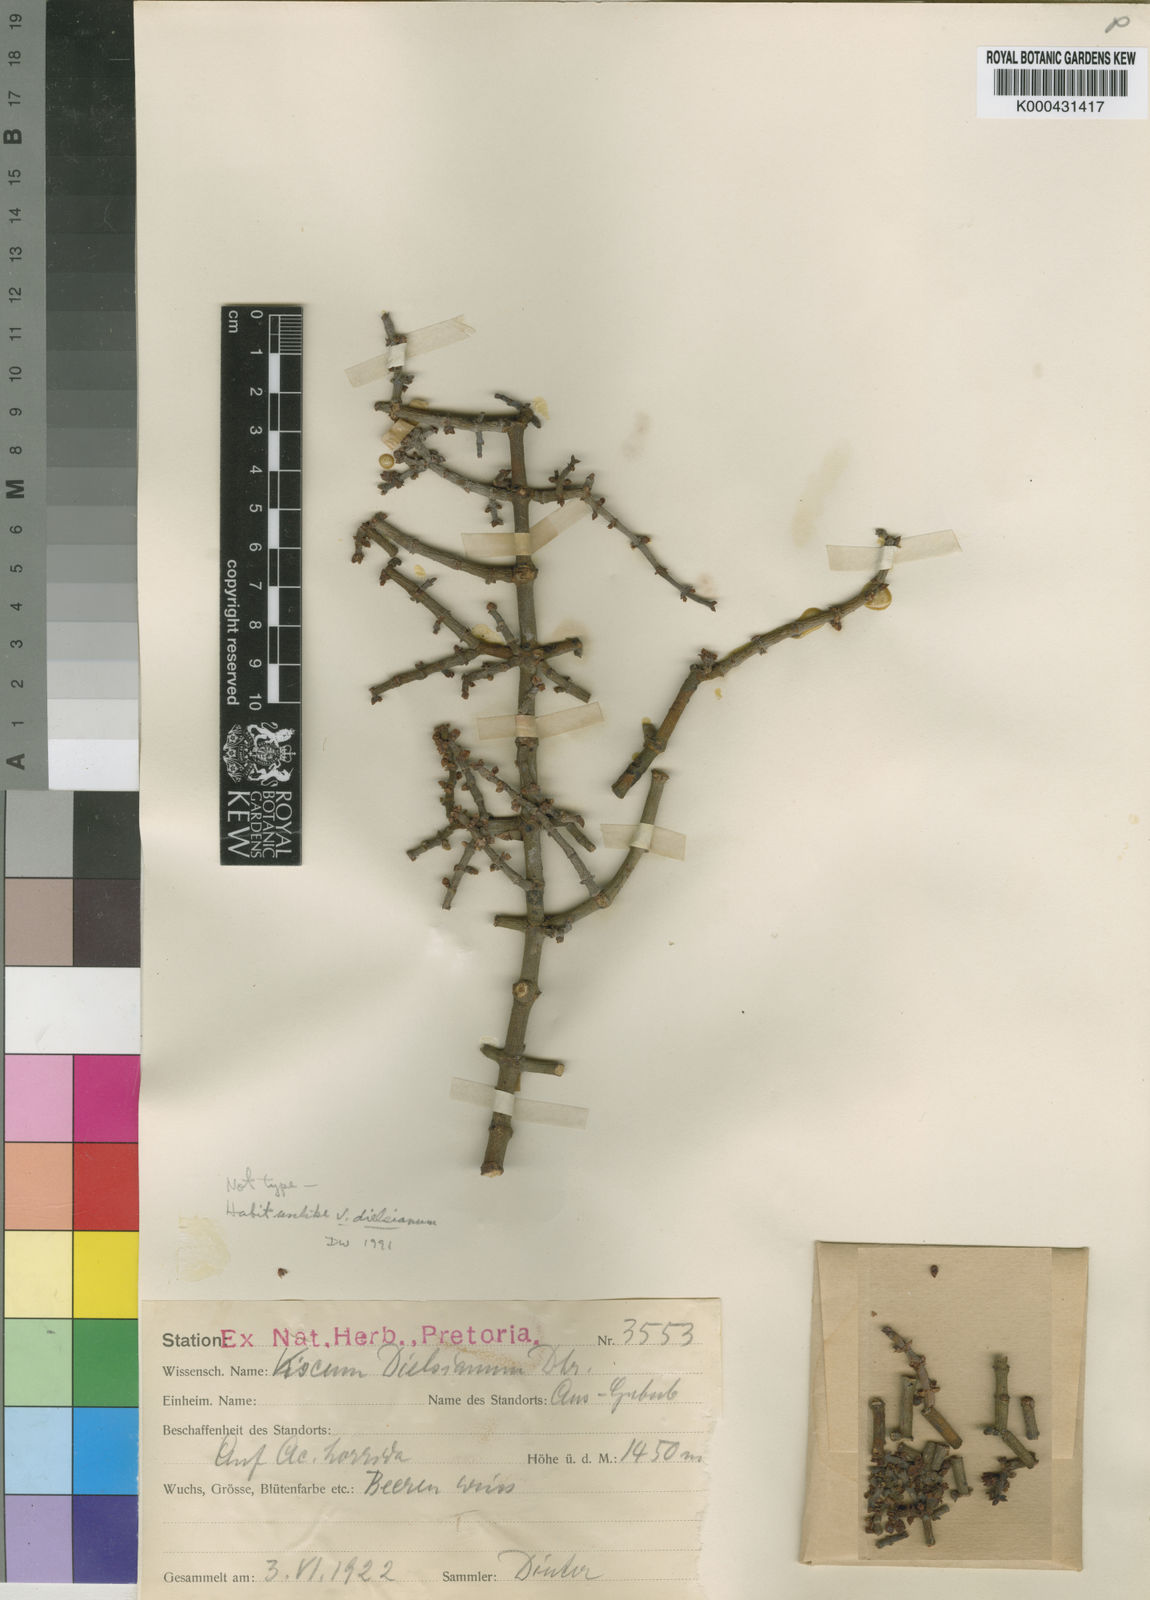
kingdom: Plantae
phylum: Tracheophyta
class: Magnoliopsida
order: Santalales
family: Viscaceae
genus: Viscum
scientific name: Viscum capense
